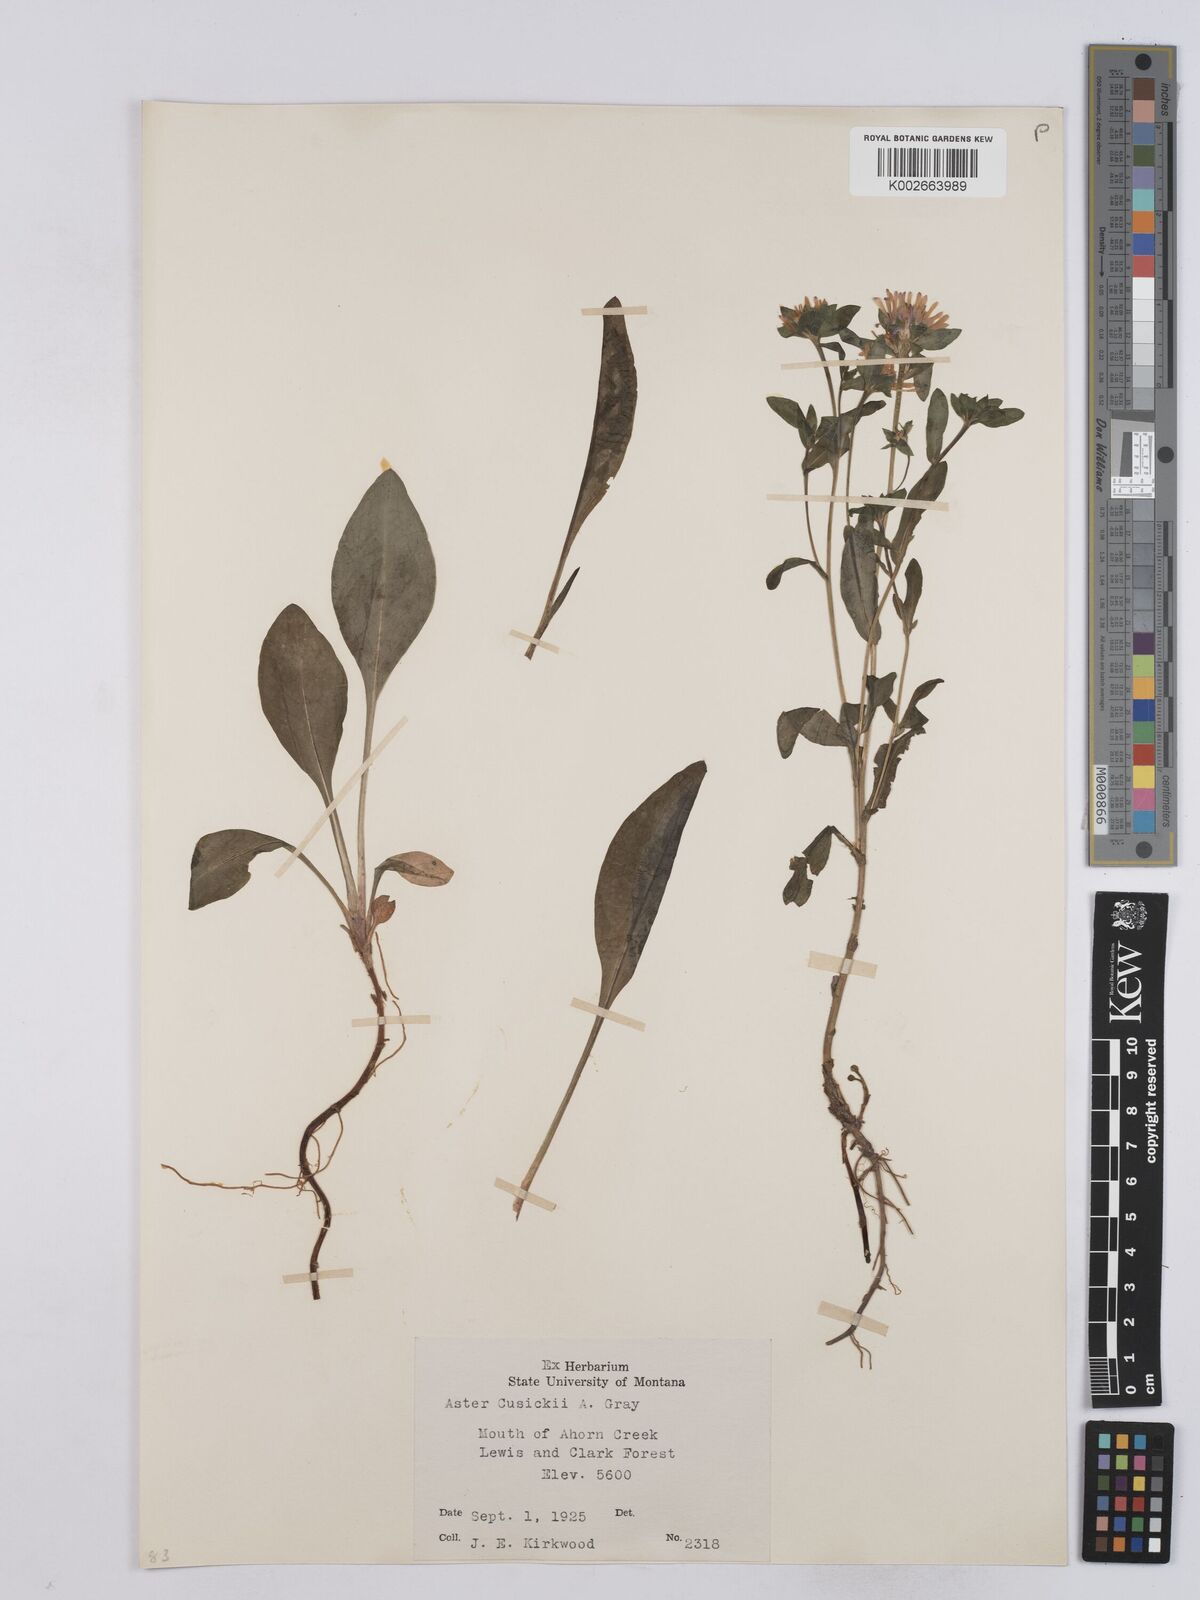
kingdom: Plantae
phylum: Tracheophyta
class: Magnoliopsida
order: Asterales
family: Asteraceae
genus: Symphyotrichum
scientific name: Symphyotrichum foliaceum
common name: Leafy aster
